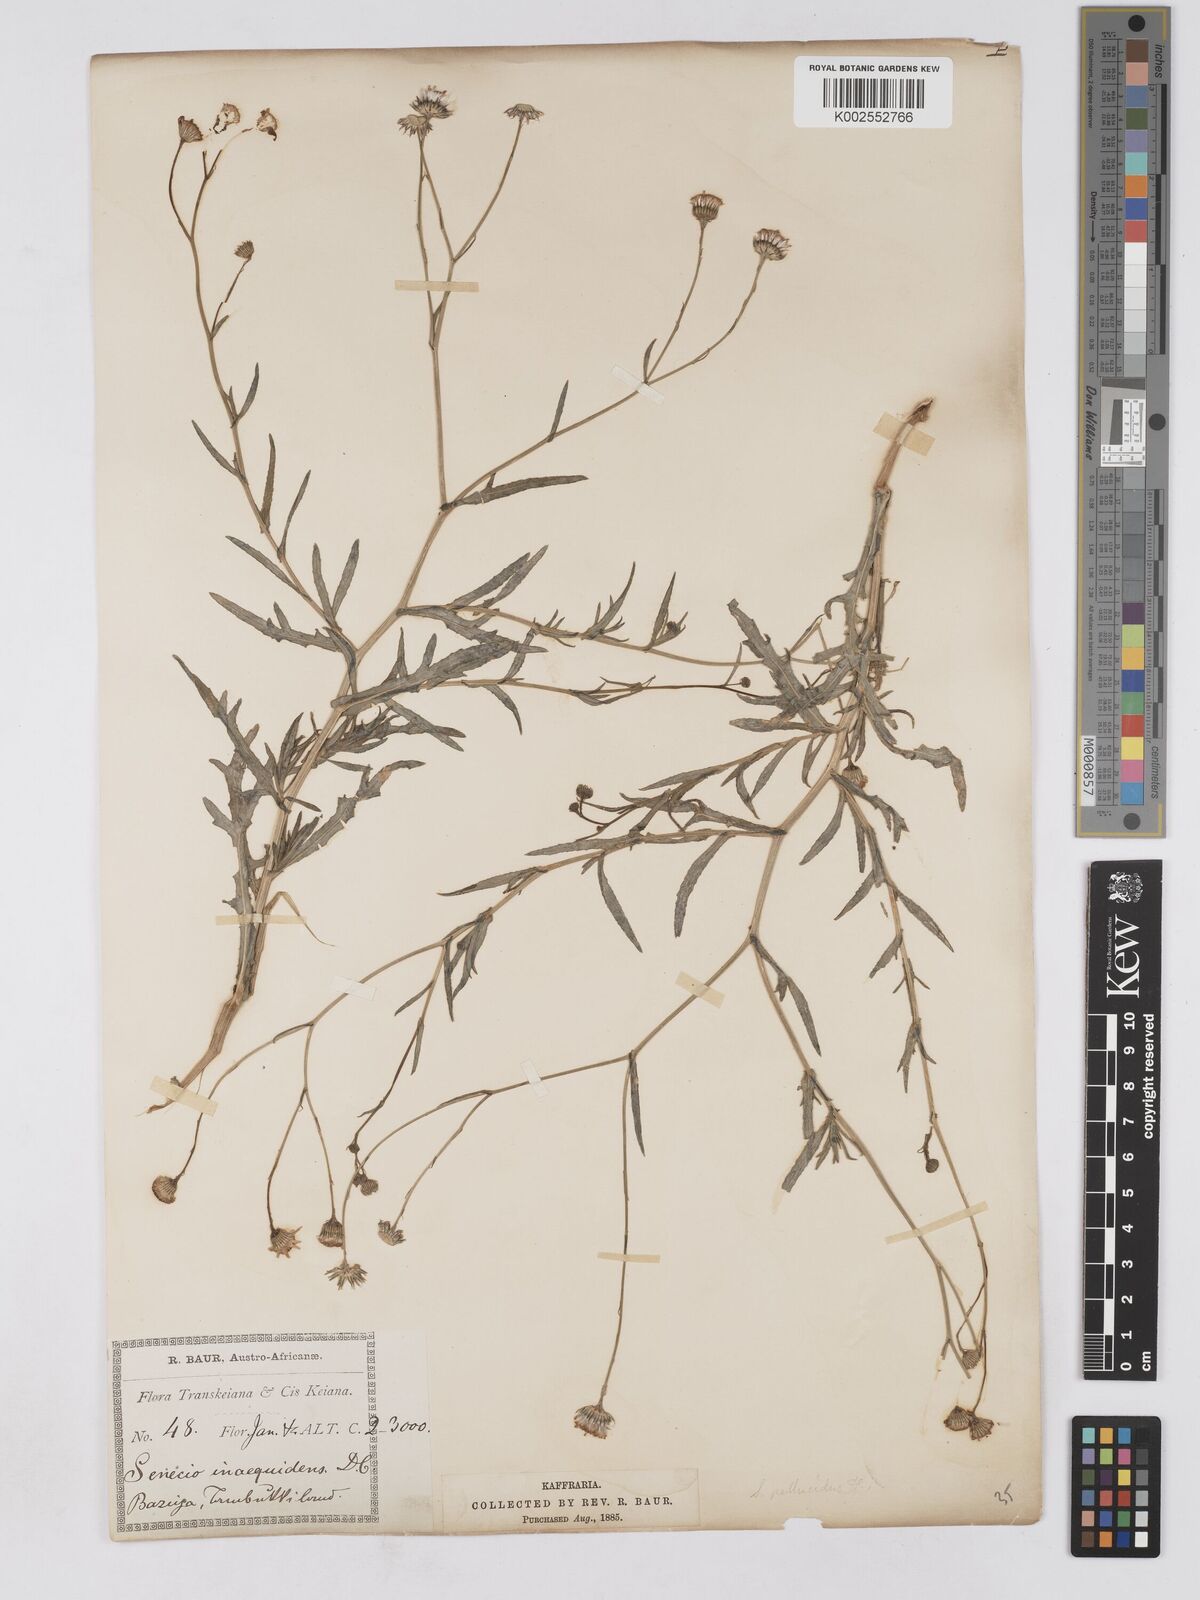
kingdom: Plantae
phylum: Tracheophyta
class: Magnoliopsida
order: Asterales
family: Asteraceae
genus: Senecio
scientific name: Senecio madagascariensis
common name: Madagascar ragwort
